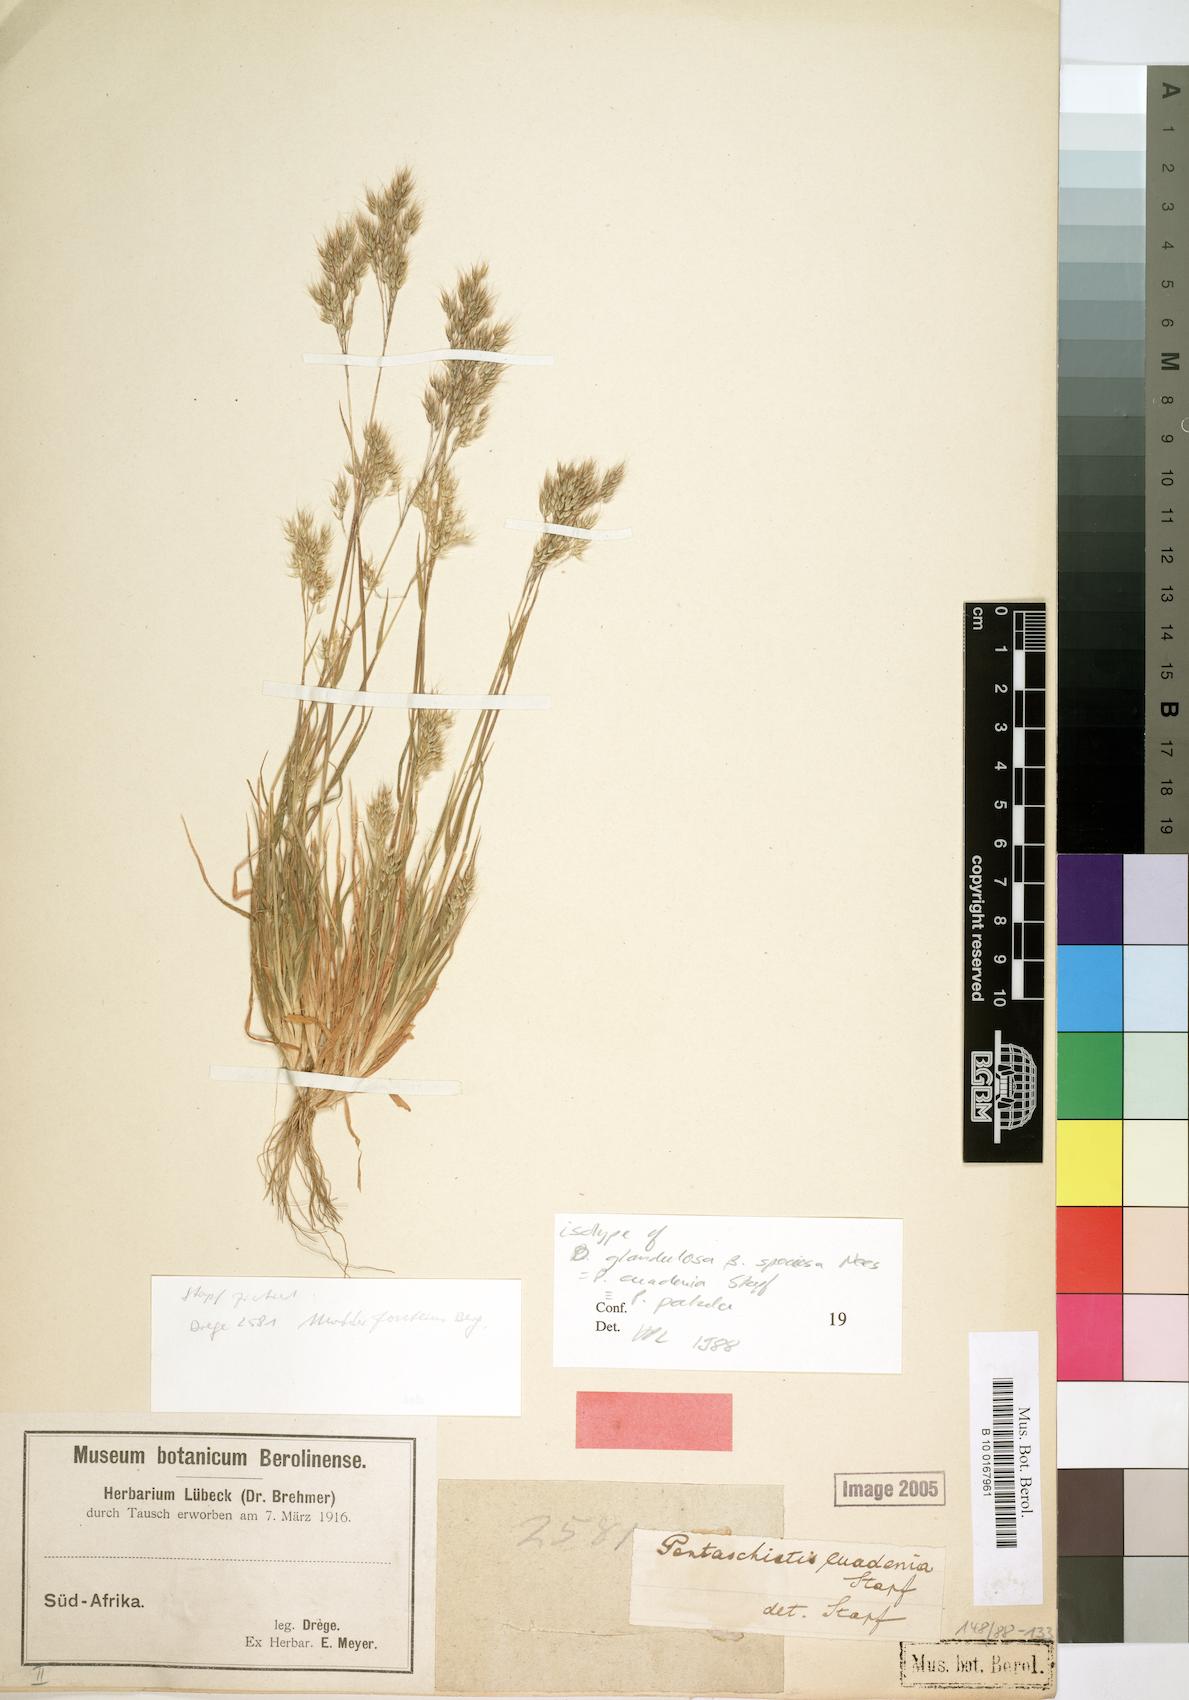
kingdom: Plantae
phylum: Tracheophyta
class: Liliopsida
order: Poales
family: Poaceae
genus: Pentameris
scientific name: Pentameris patula
